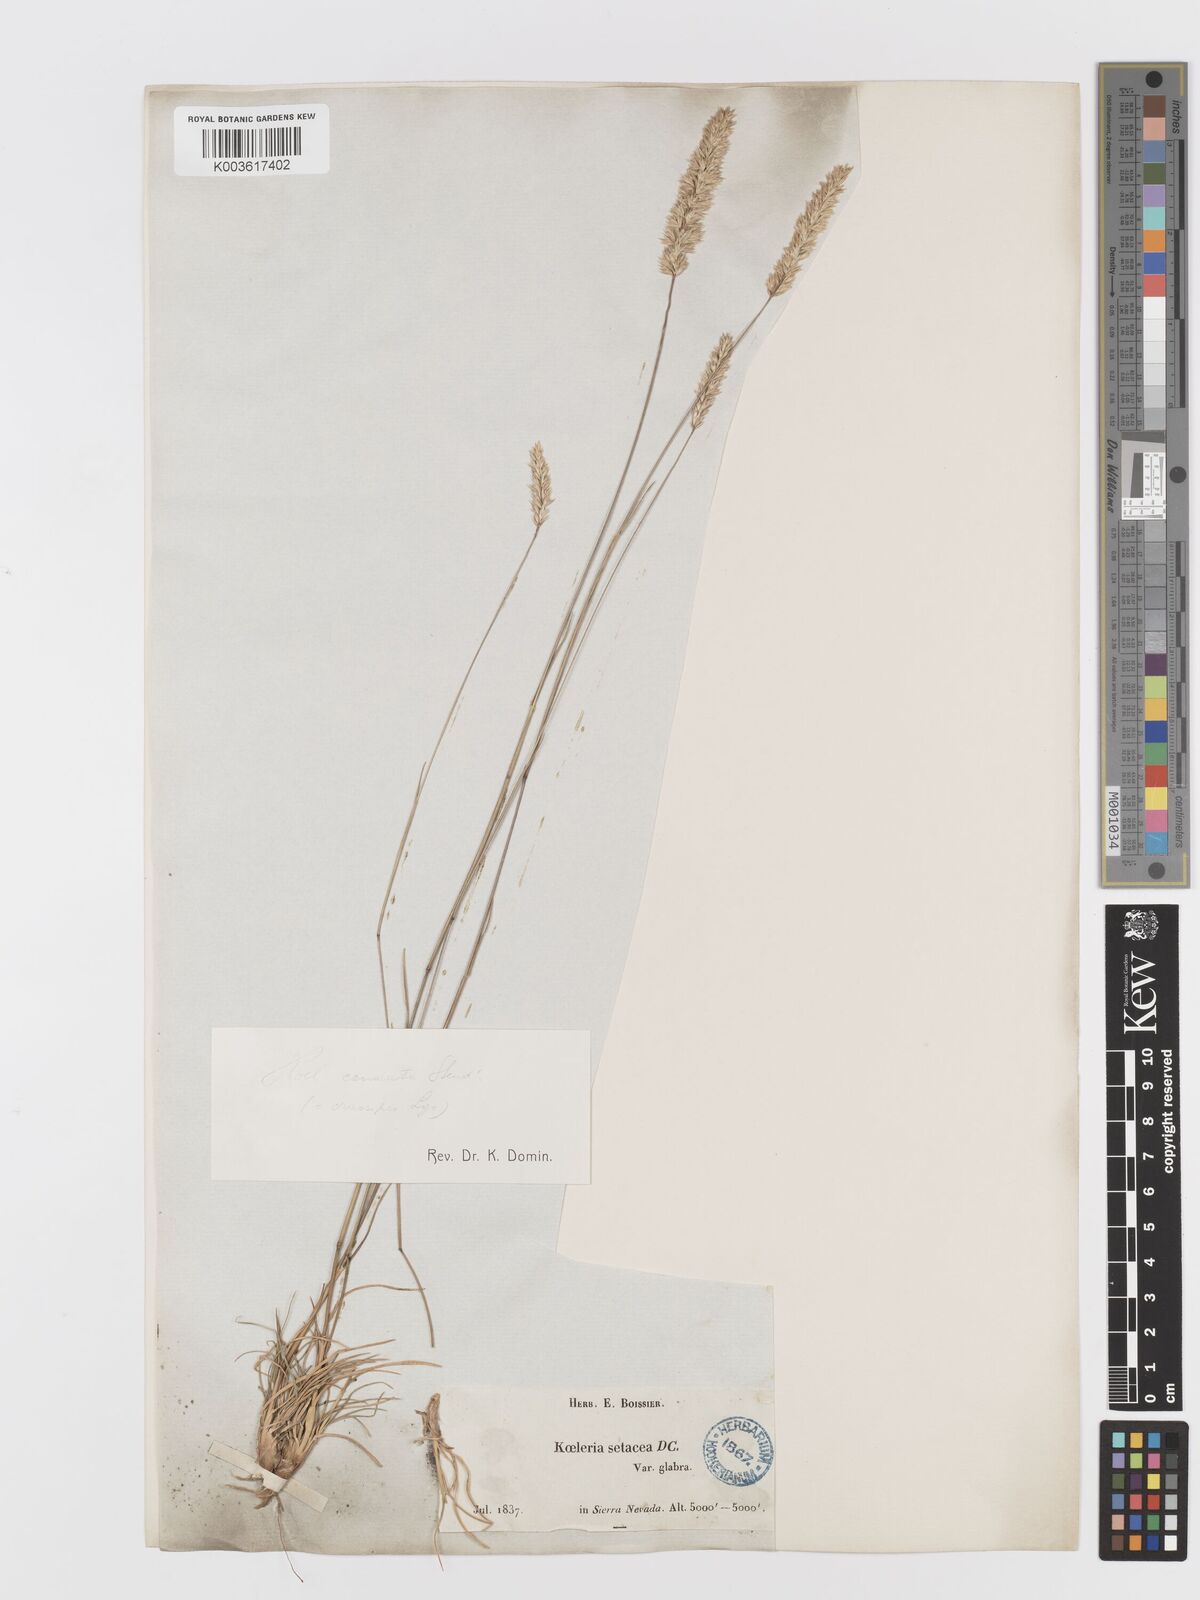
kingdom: Plantae
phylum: Tracheophyta
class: Liliopsida
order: Poales
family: Poaceae
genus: Koeleria
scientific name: Koeleria crassipes
